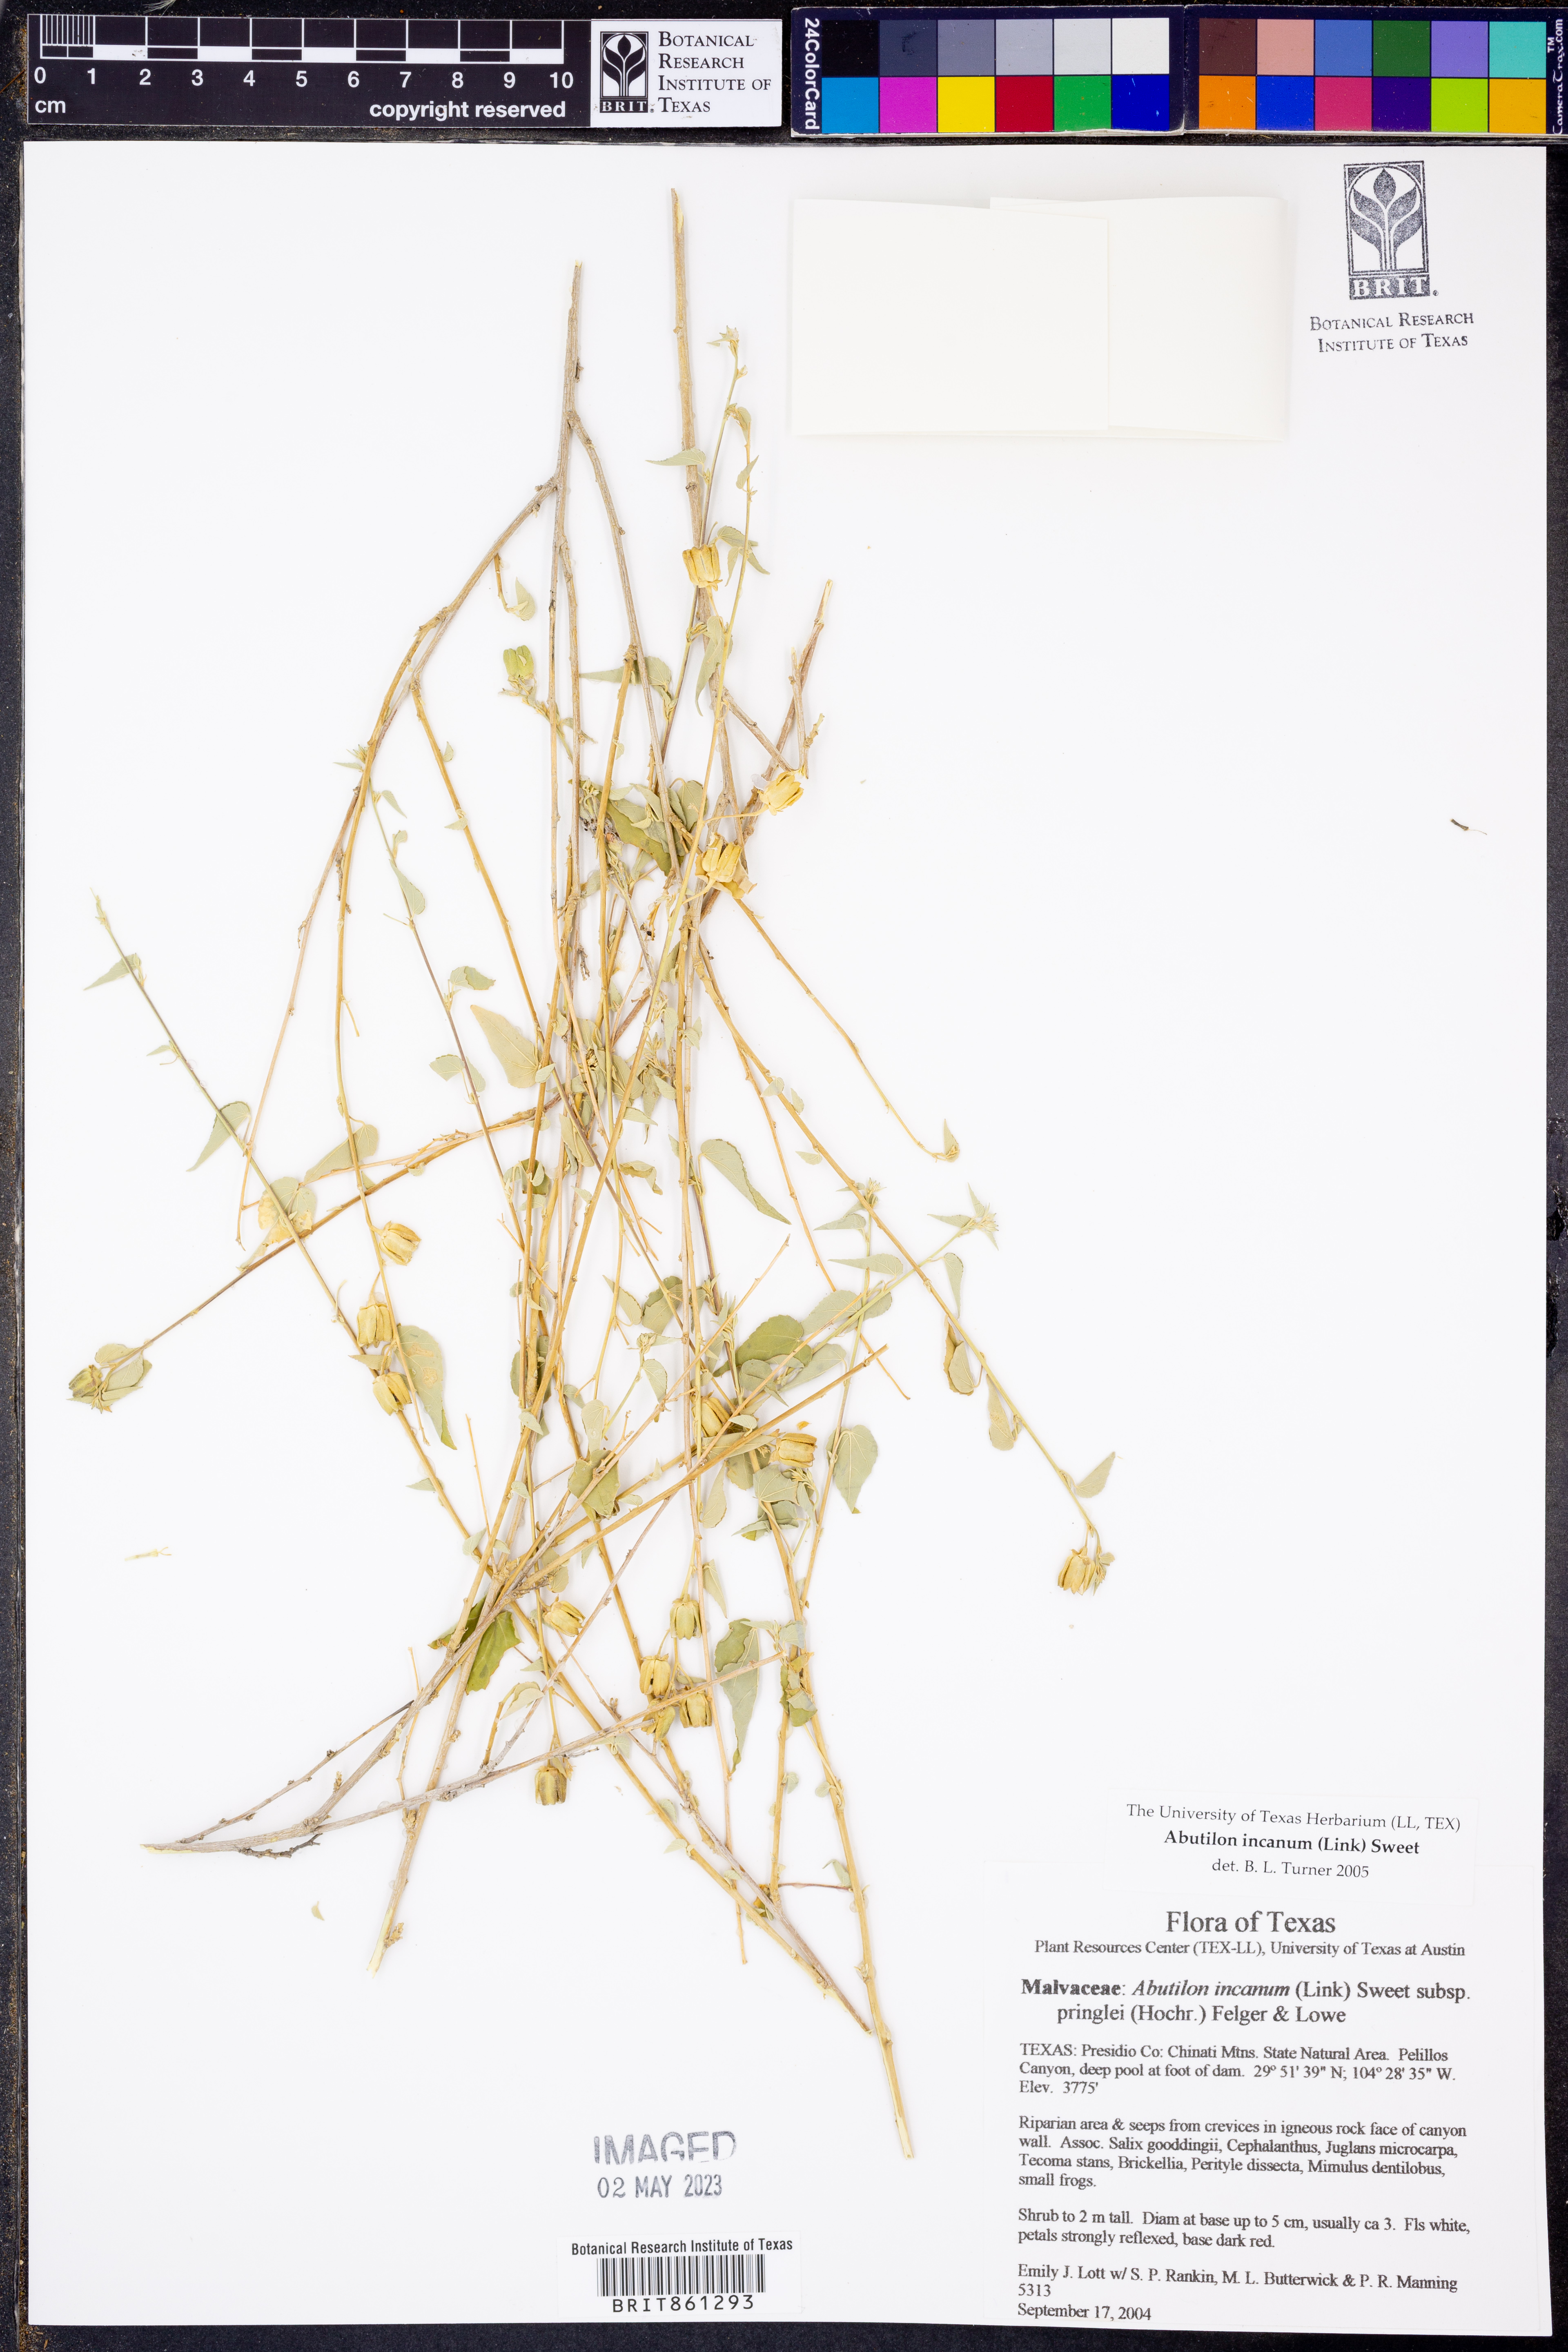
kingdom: Plantae
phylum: Tracheophyta
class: Magnoliopsida
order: Malvales
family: Malvaceae
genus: Abutilon
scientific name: Abutilon incanum
